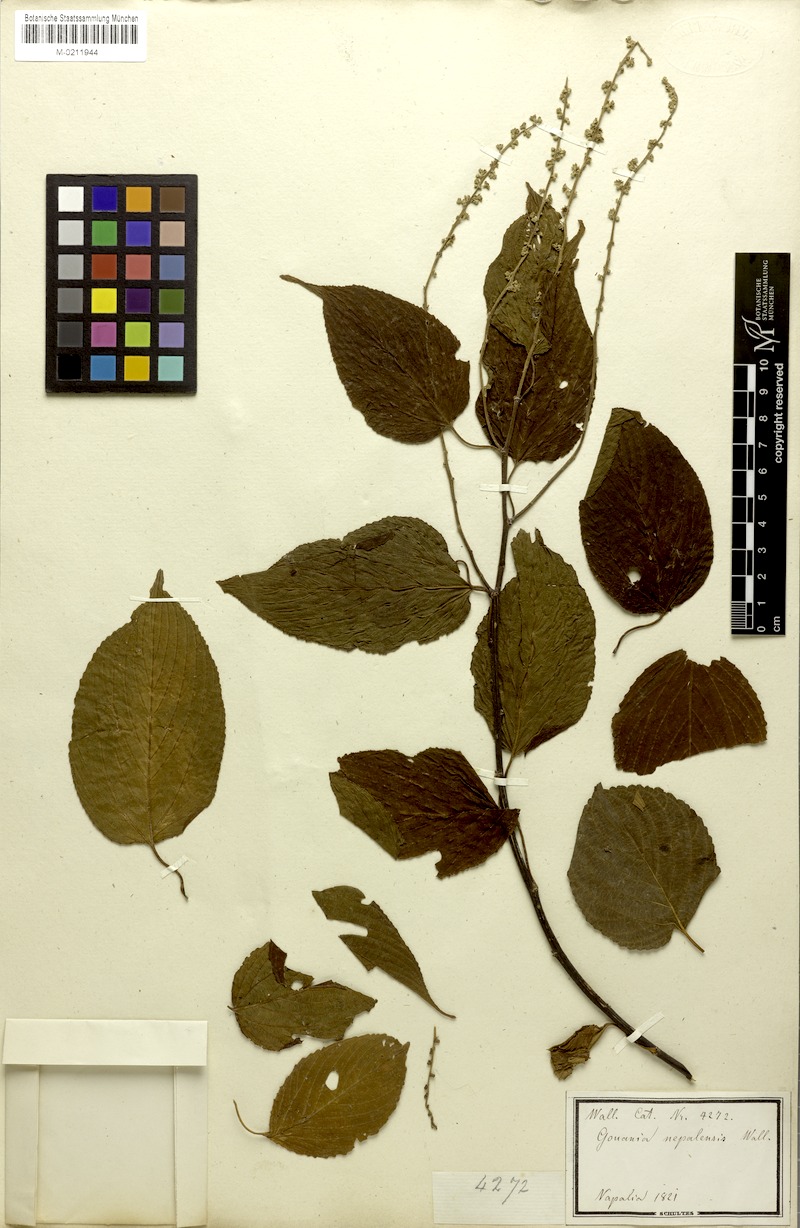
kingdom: Plantae
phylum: Tracheophyta
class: Magnoliopsida
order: Rosales
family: Rhamnaceae
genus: Gouania
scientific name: Gouania napalensis
